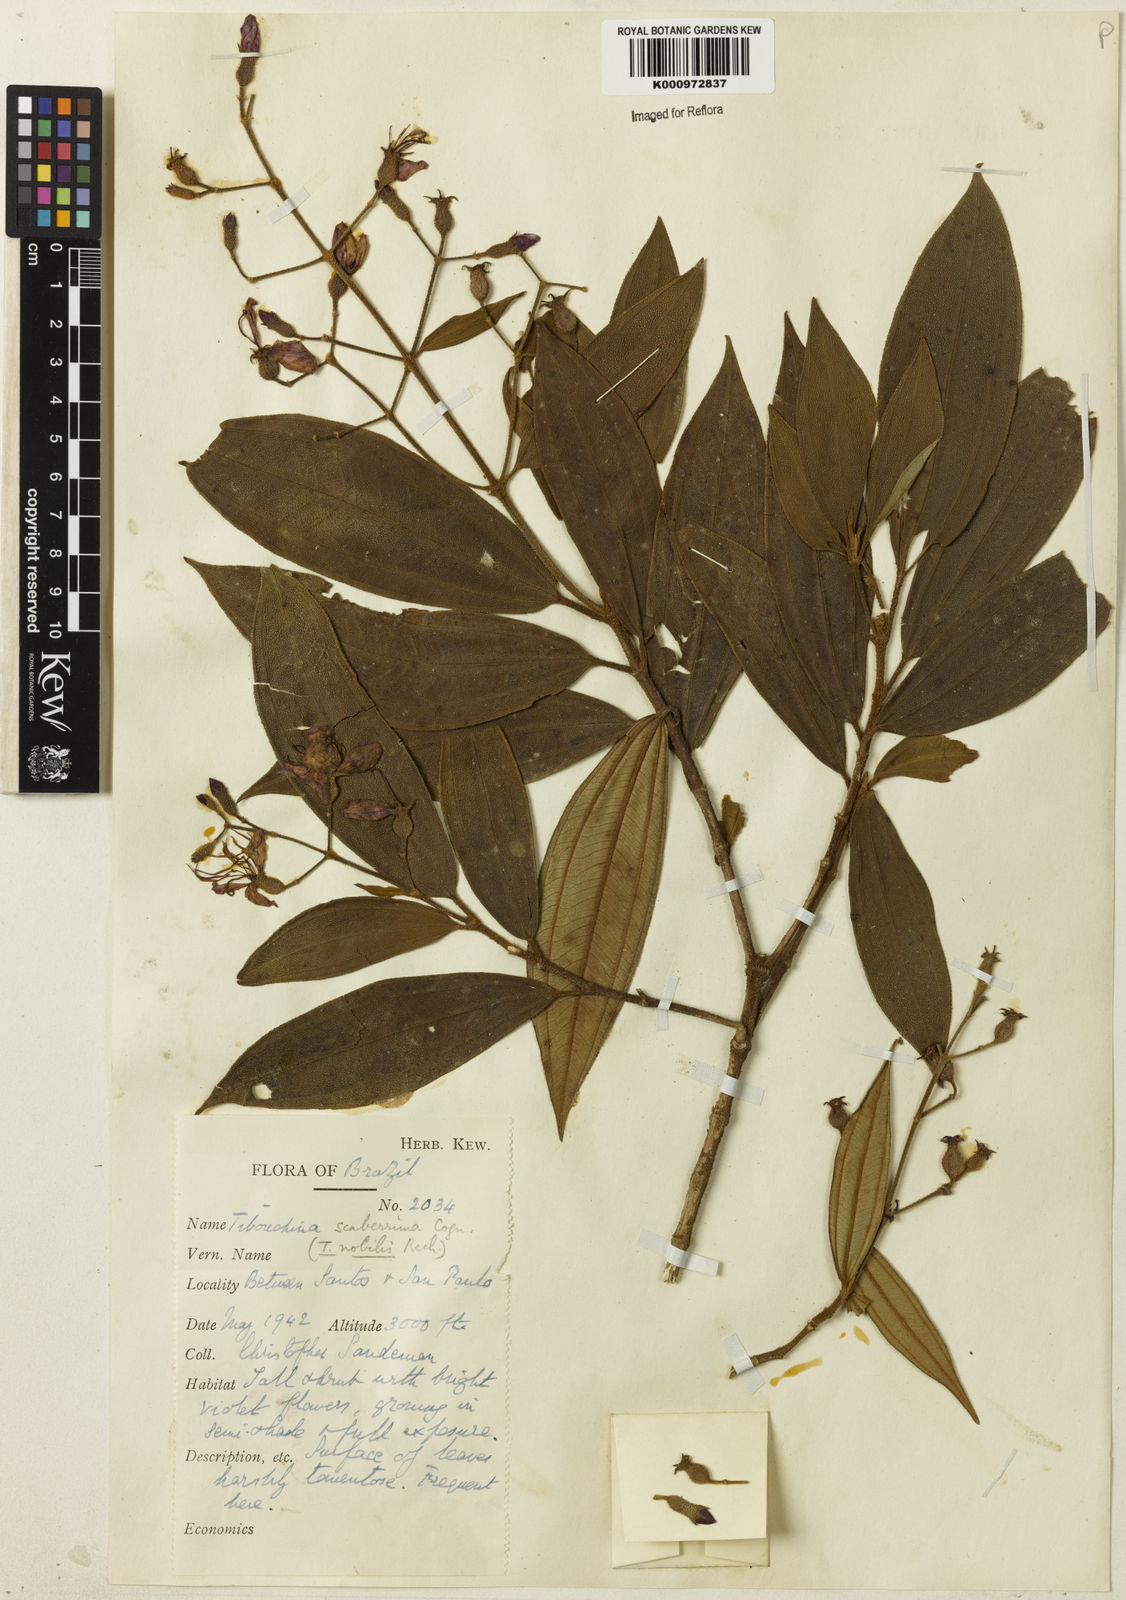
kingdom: Plantae
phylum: Tracheophyta
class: Magnoliopsida
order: Myrtales
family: Melastomataceae
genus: Pleroma
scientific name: Pleroma scaberrimum
